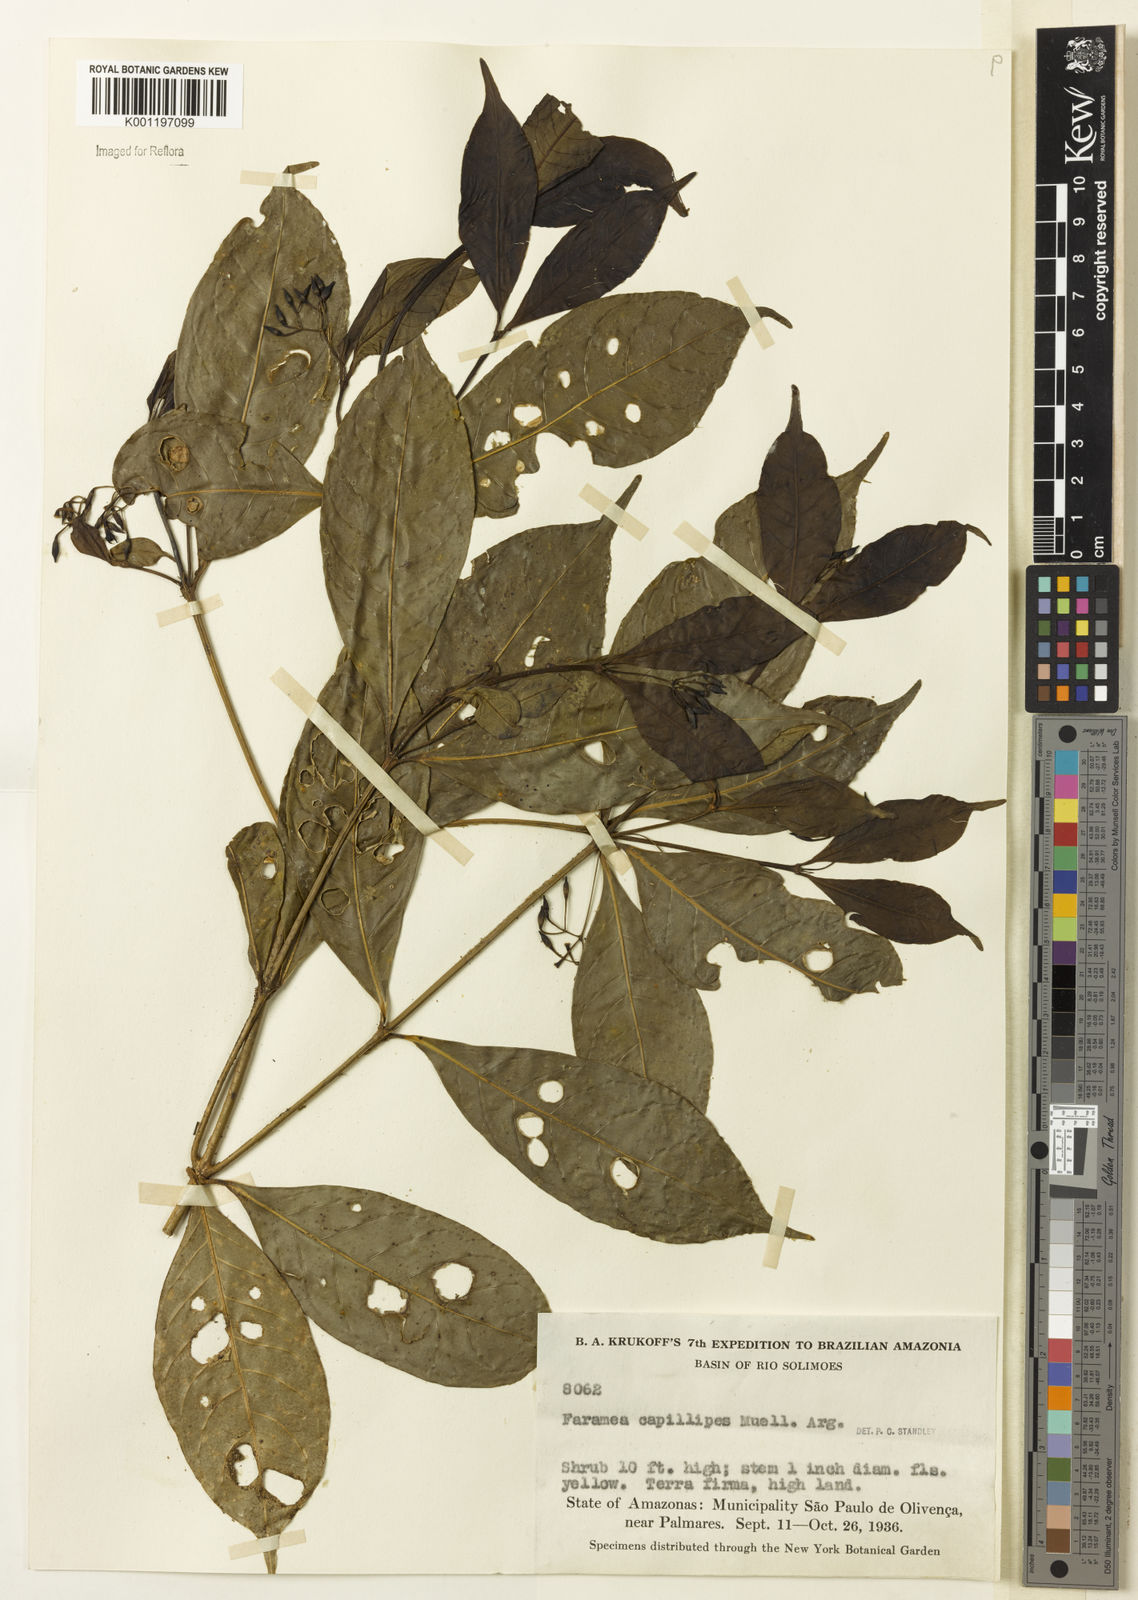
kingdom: Plantae
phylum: Tracheophyta
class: Magnoliopsida
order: Gentianales
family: Rubiaceae
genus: Faramea
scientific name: Faramea
